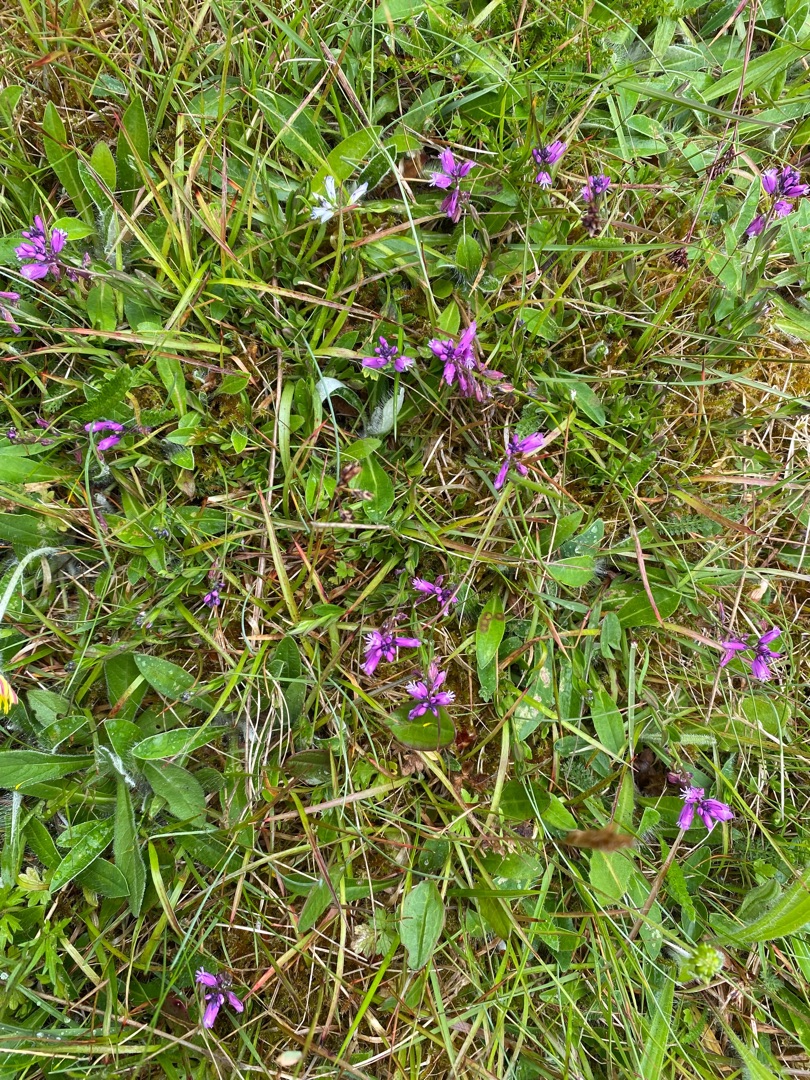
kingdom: Plantae
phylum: Tracheophyta
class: Magnoliopsida
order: Fabales
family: Polygalaceae
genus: Polygala
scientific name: Polygala vulgaris
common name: Almindelig mælkeurt
